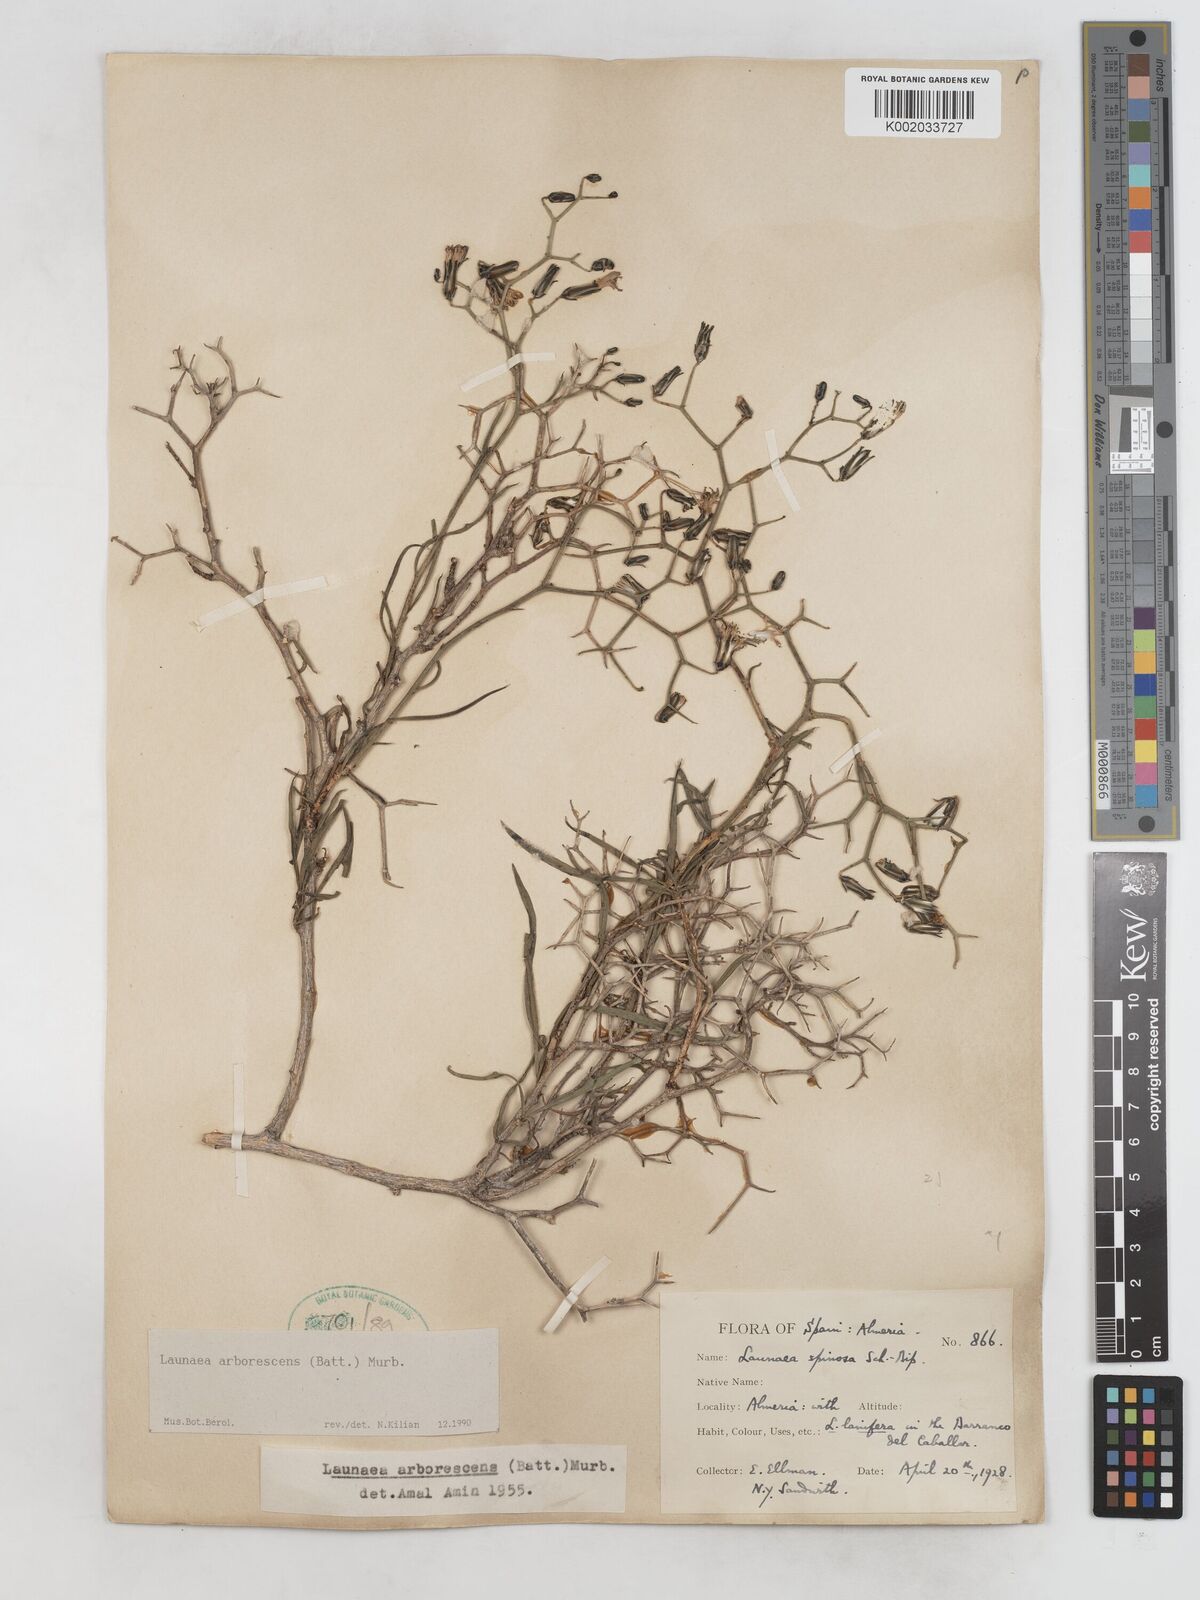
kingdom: Plantae
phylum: Tracheophyta
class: Magnoliopsida
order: Asterales
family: Asteraceae
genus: Launaea
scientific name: Launaea arborescens
